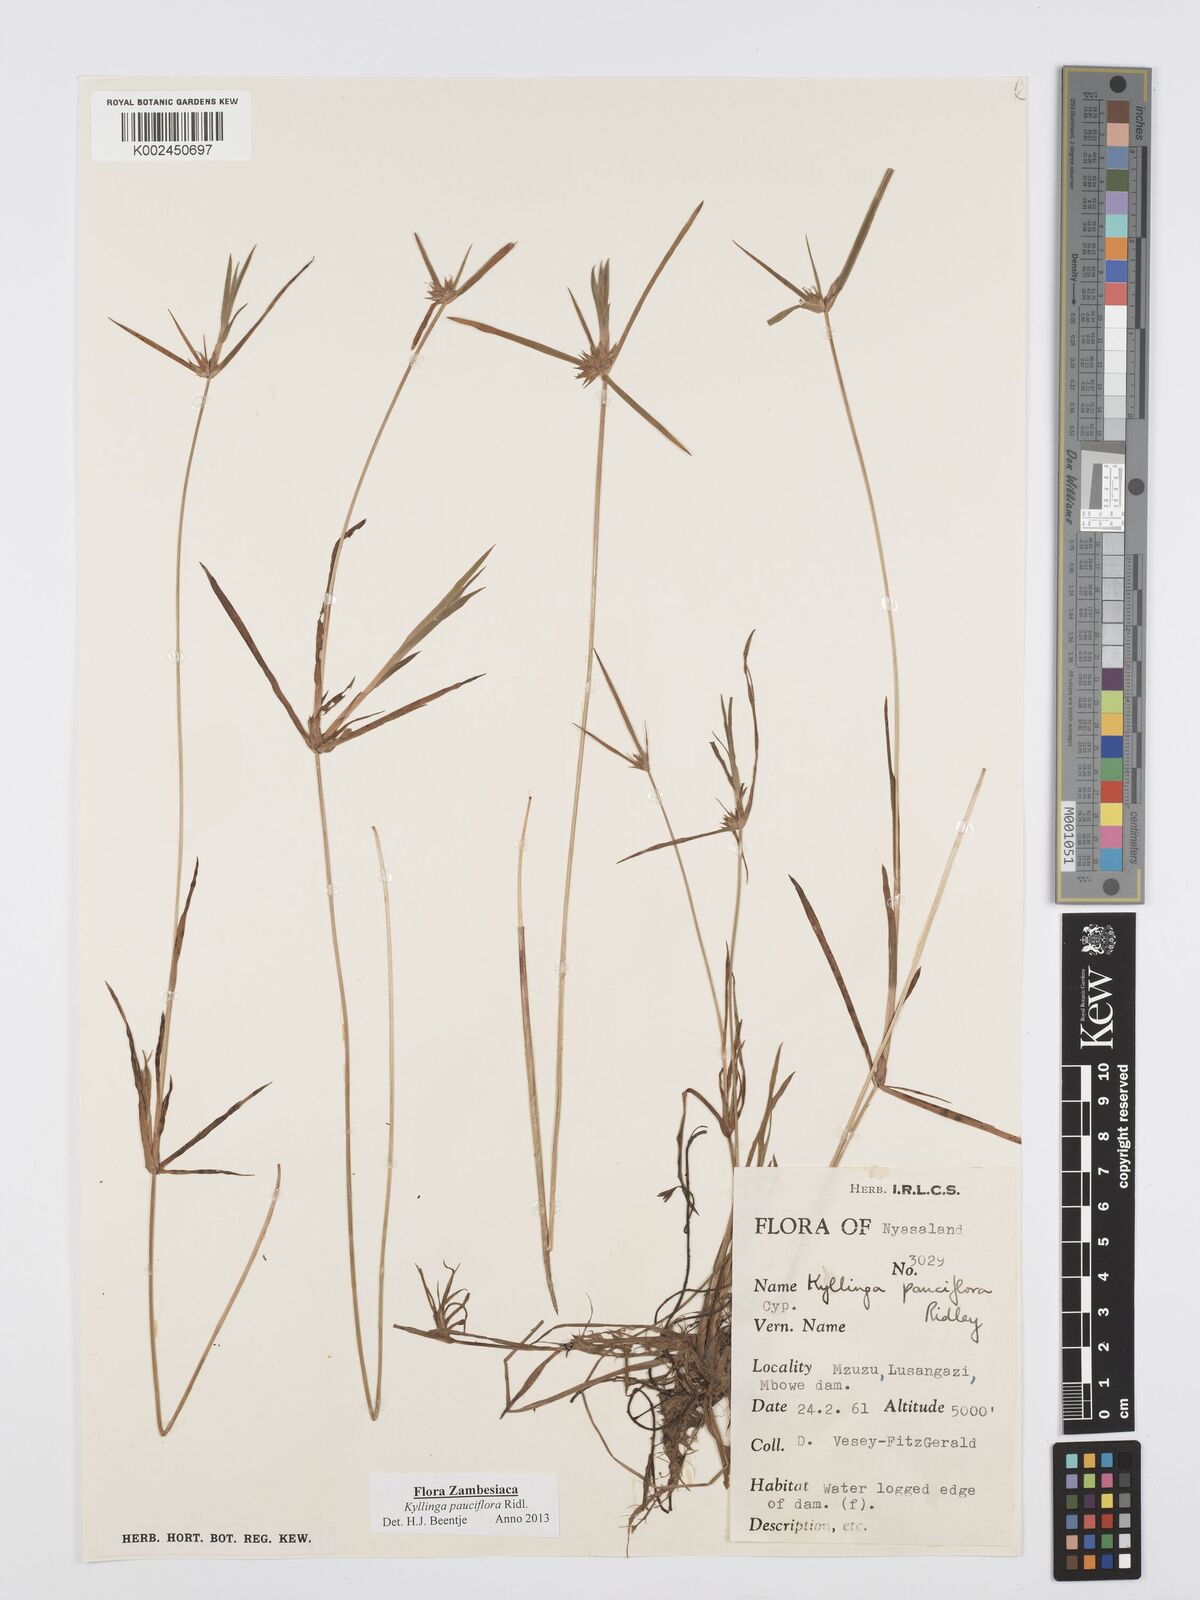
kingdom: Plantae
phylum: Tracheophyta
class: Liliopsida
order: Poales
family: Cyperaceae
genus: Cyperus
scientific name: Cyperus
